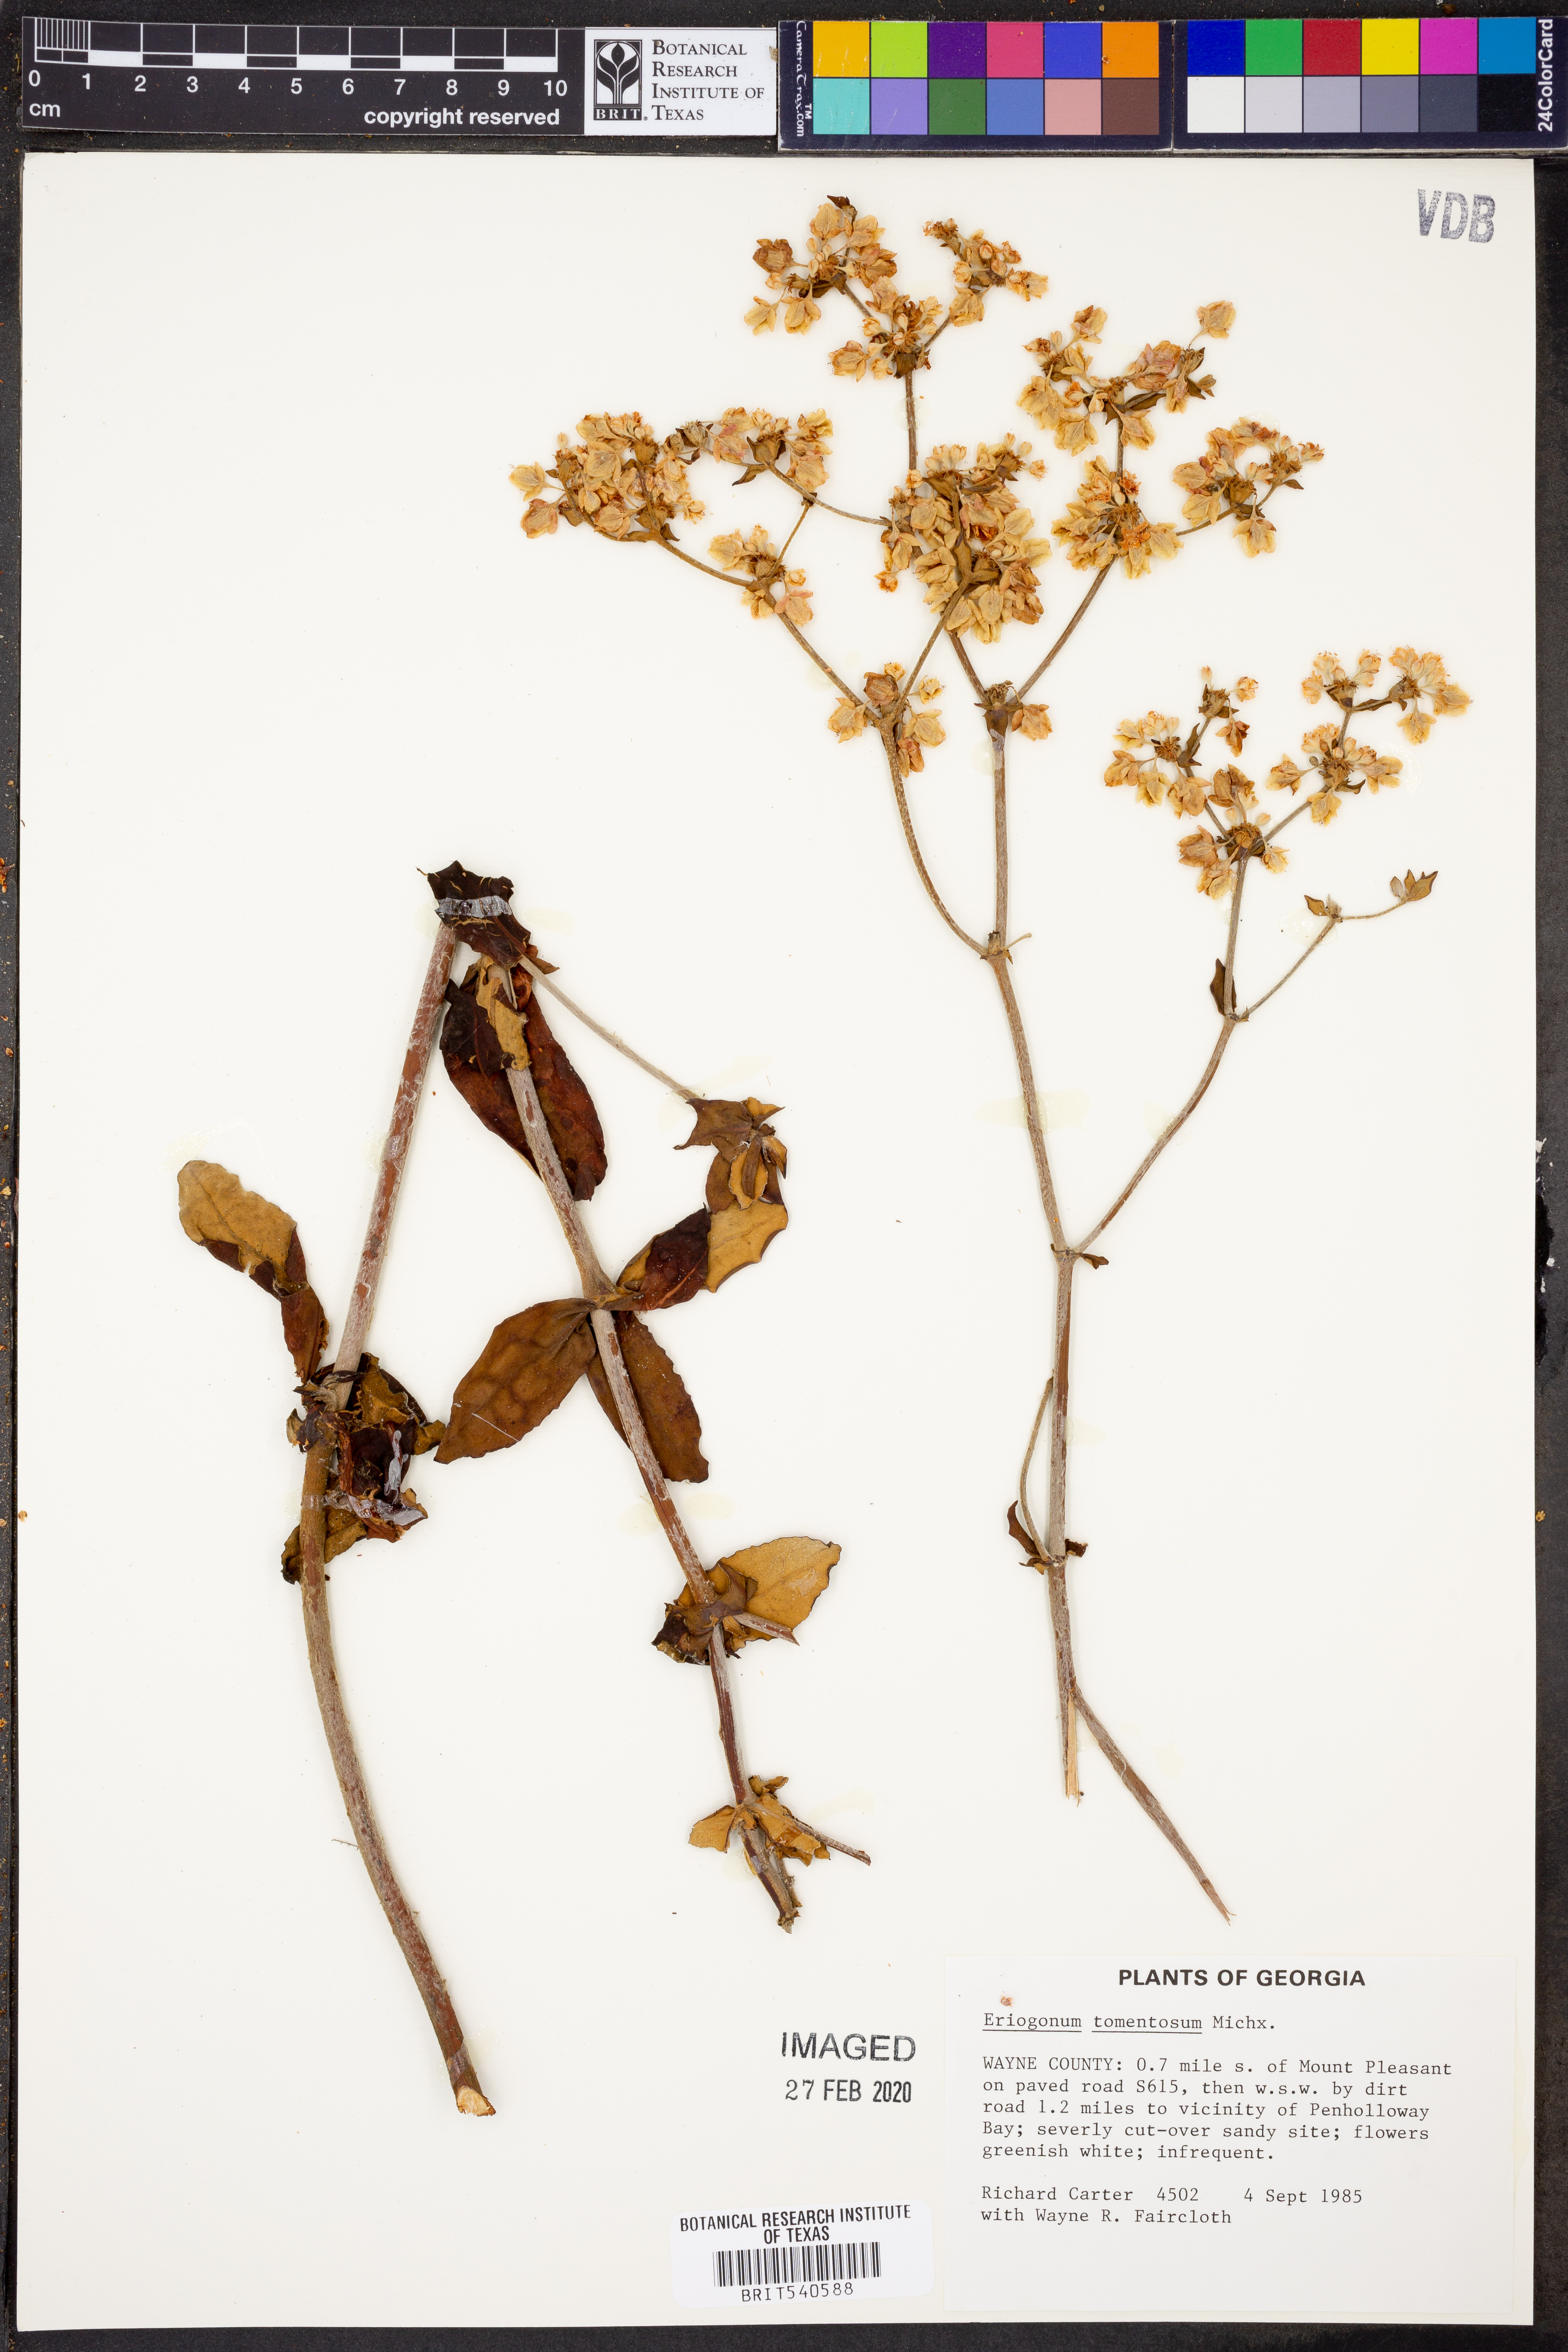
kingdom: Plantae
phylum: Tracheophyta
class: Magnoliopsida
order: Caryophyllales
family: Polygonaceae
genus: Eriogonum
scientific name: Eriogonum tomentosum
